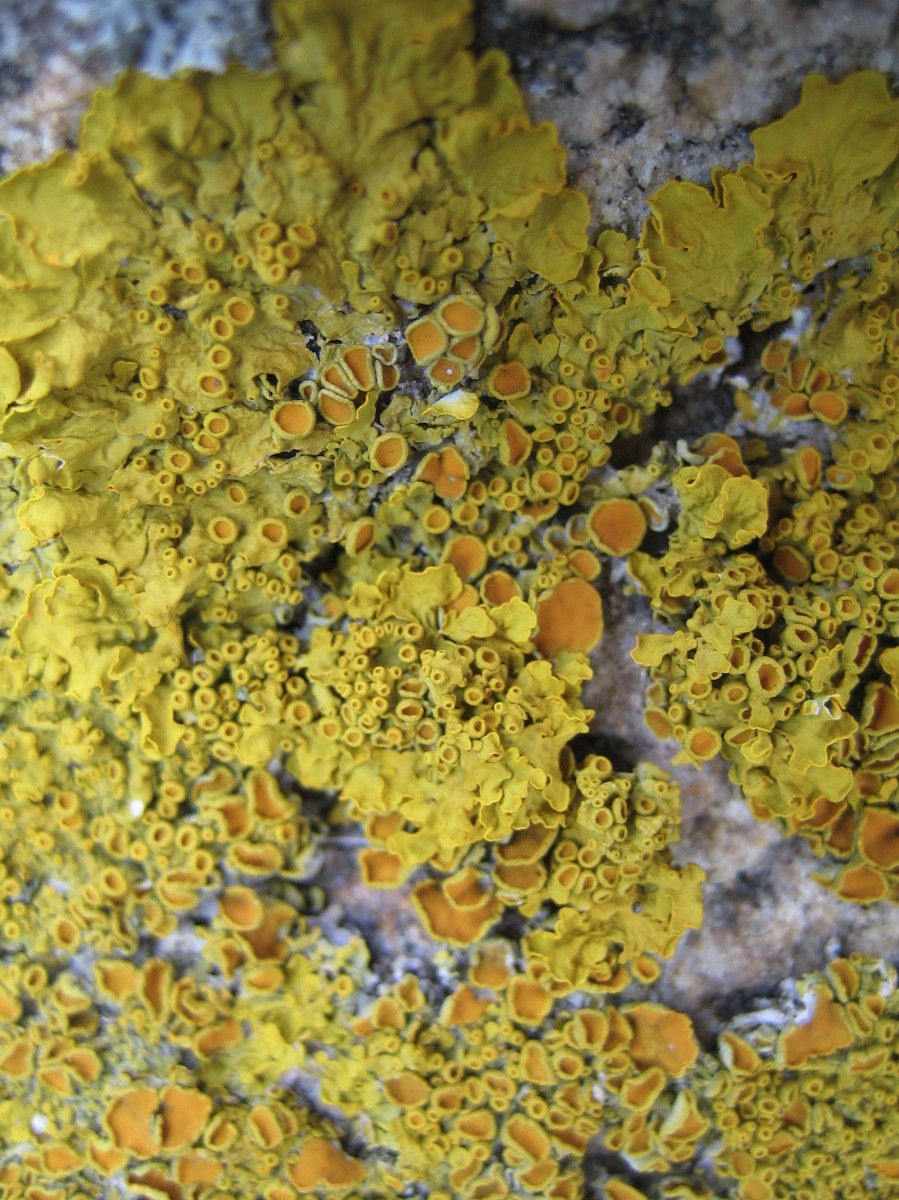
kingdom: Fungi
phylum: Ascomycota
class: Lecanoromycetes
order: Teloschistales
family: Teloschistaceae
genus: Xanthoria
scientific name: Xanthoria parietina
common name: almindelig væggelav
